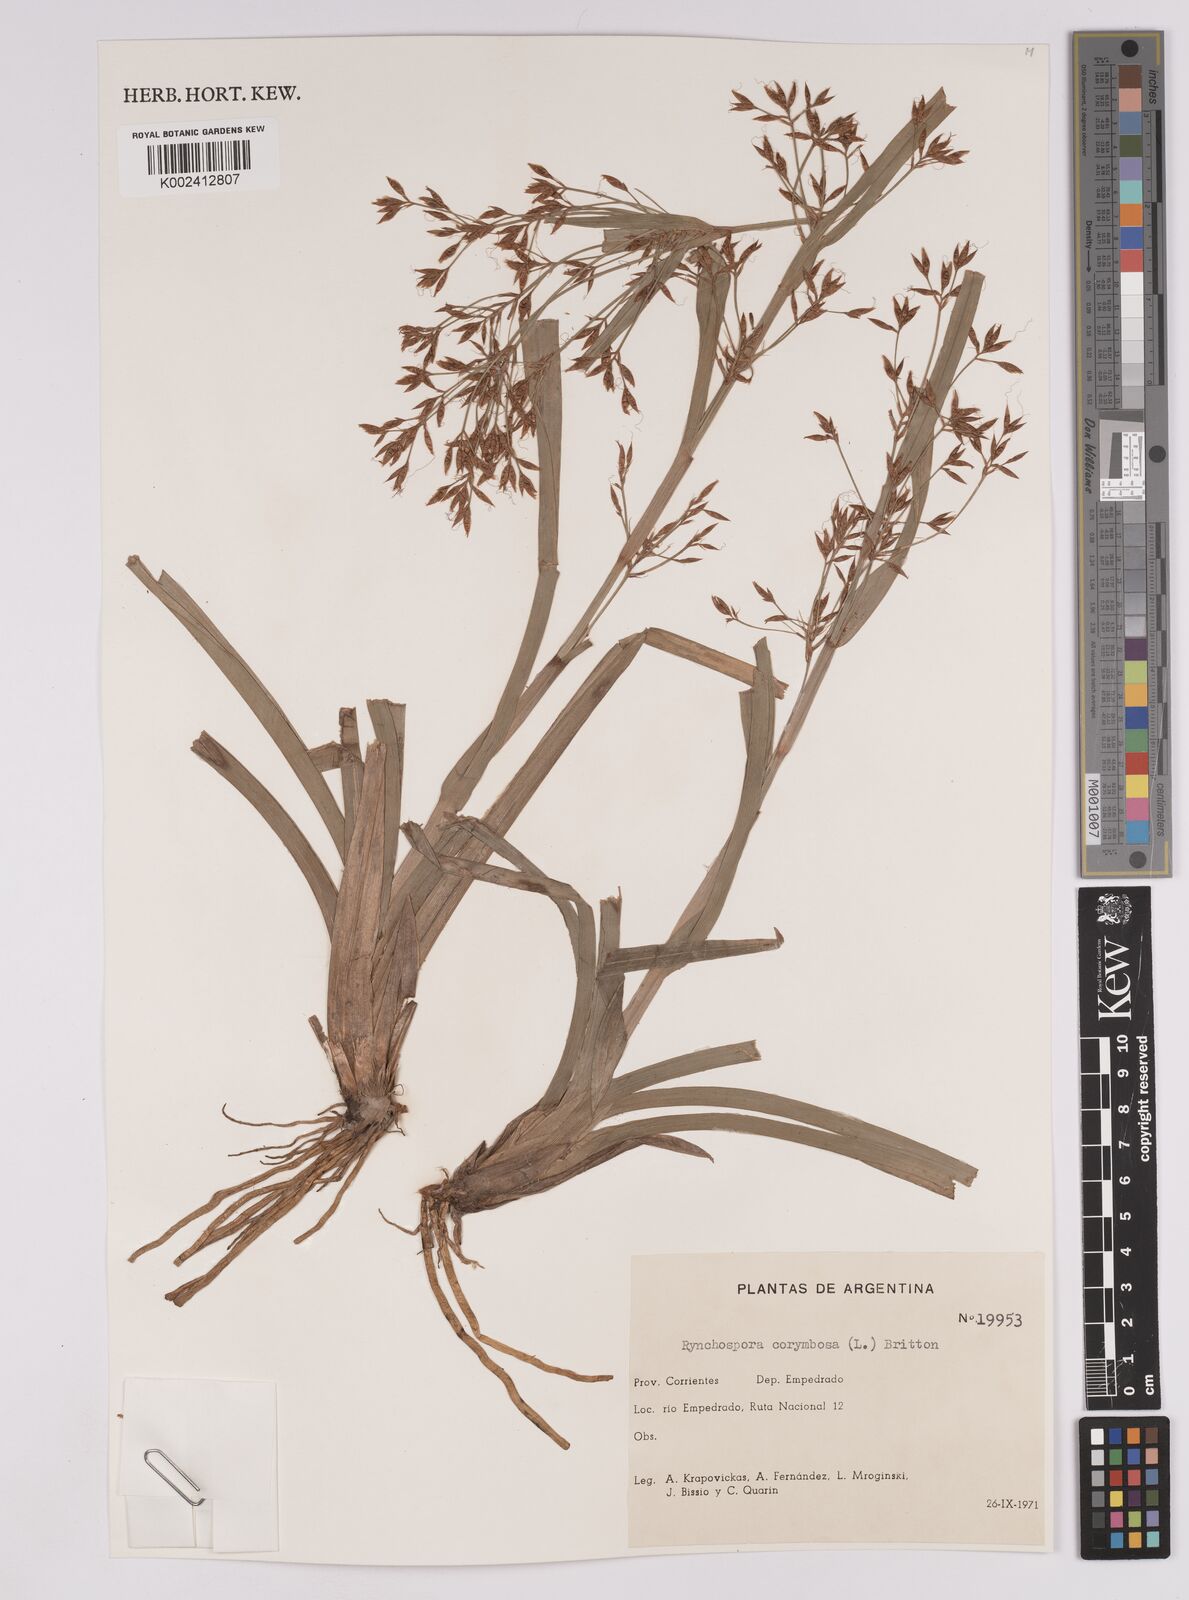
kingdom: Plantae
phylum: Tracheophyta
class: Liliopsida
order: Poales
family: Cyperaceae
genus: Rhynchospora
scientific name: Rhynchospora corymbosa
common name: Golden beak sedge
